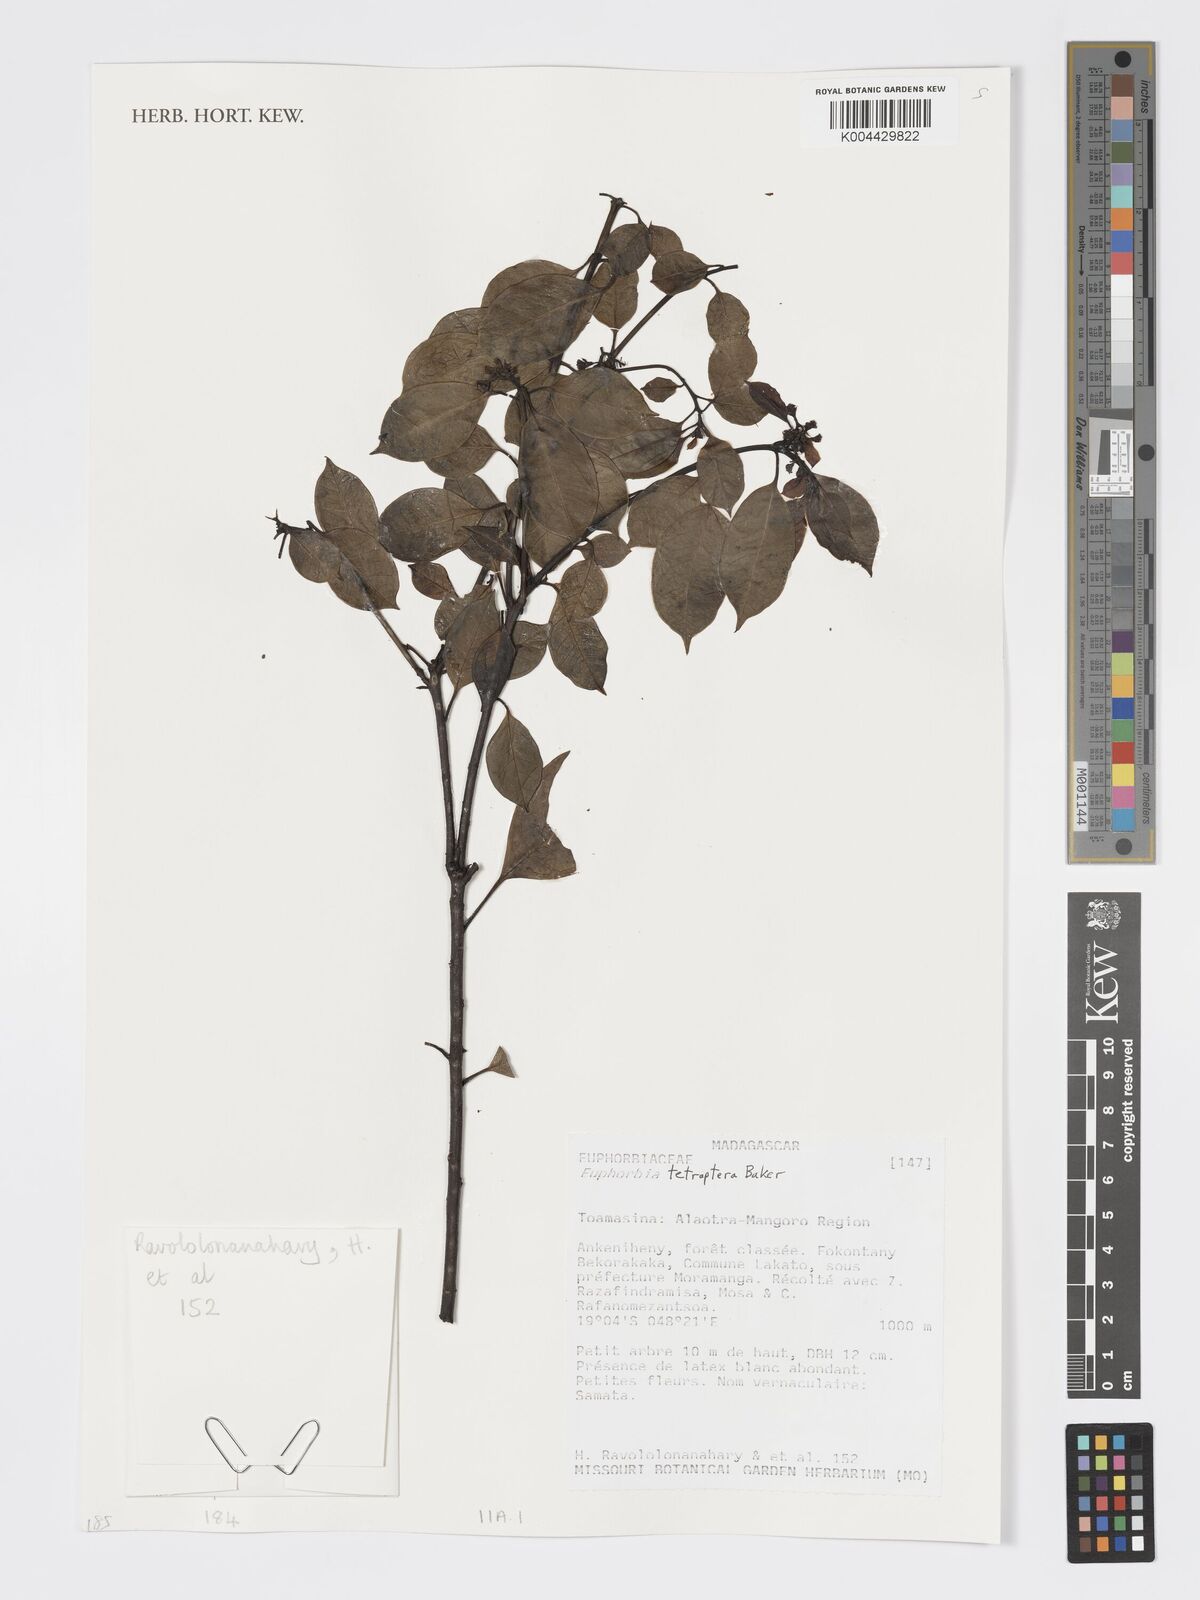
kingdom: Plantae
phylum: Tracheophyta
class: Magnoliopsida
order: Malpighiales
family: Euphorbiaceae
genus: Euphorbia
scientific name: Euphorbia tetraptera
